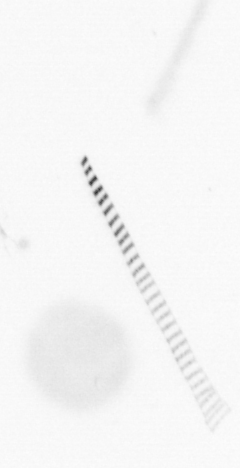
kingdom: Chromista
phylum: Ochrophyta
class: Bacillariophyceae
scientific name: Bacillariophyceae
